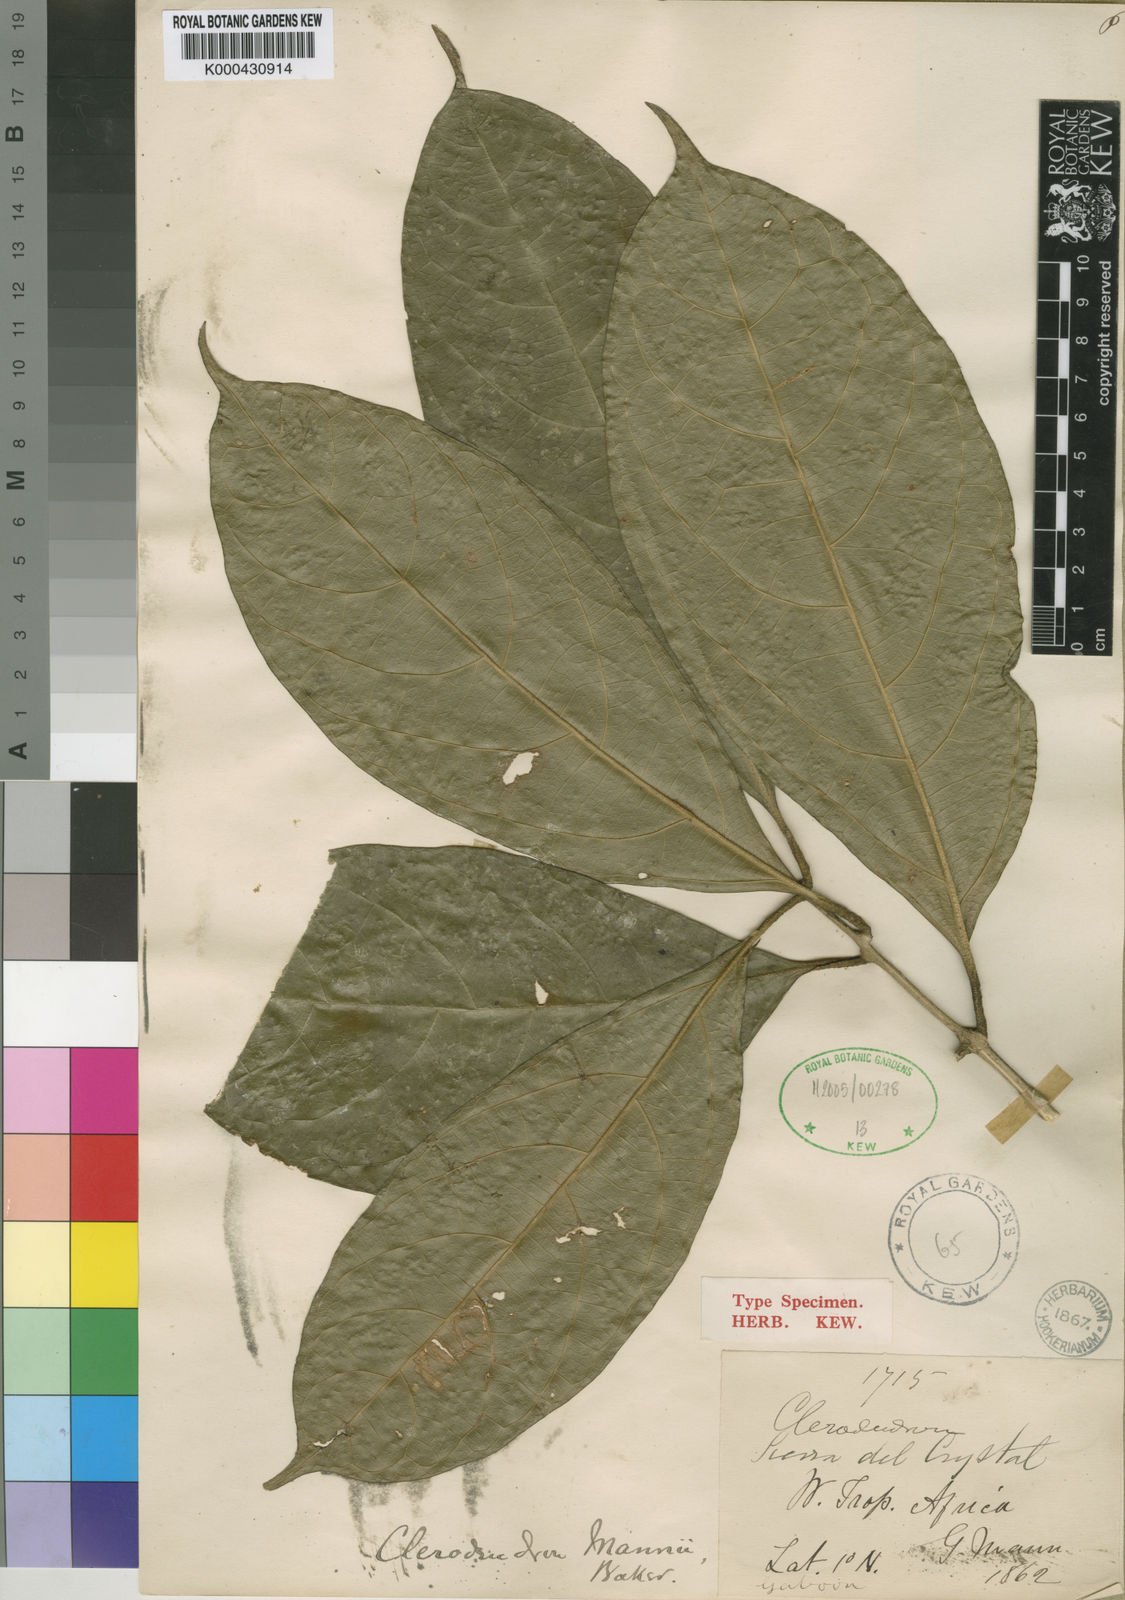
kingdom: Plantae
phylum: Tracheophyta
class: Magnoliopsida
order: Lamiales
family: Lamiaceae
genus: Clerodendrum
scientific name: Clerodendrum silvanum
